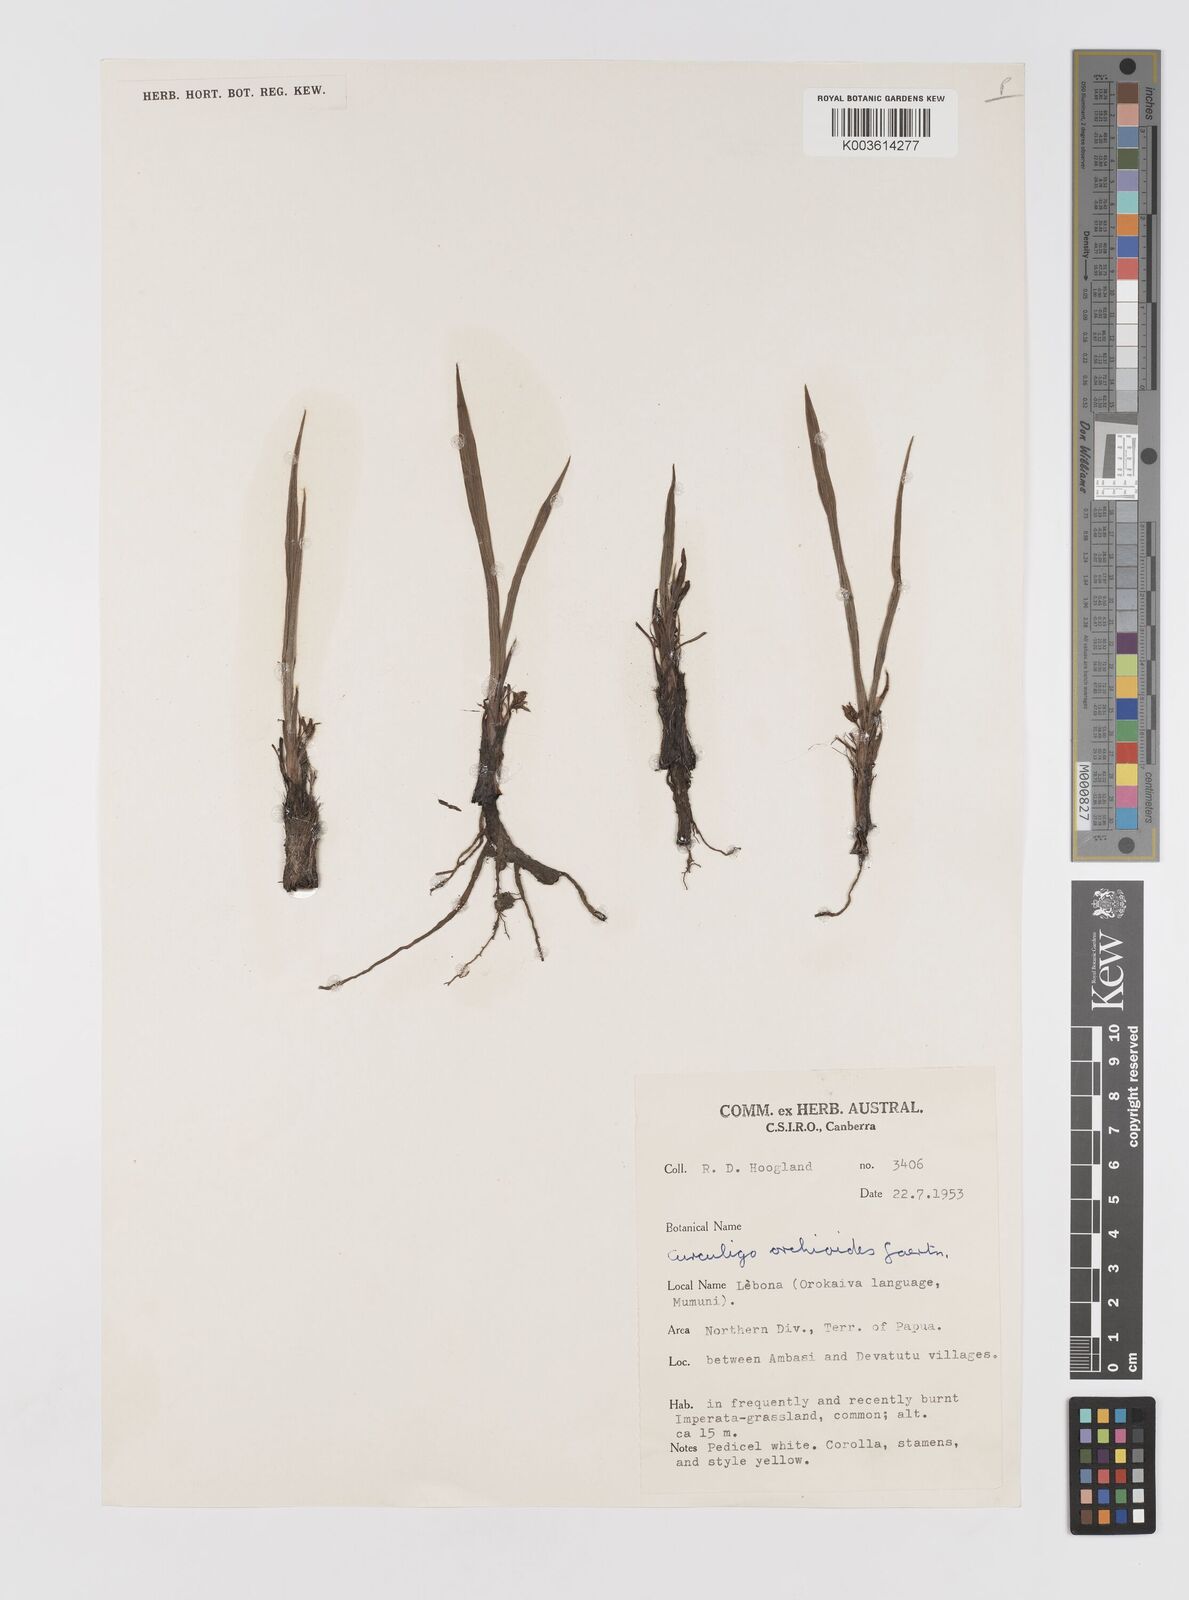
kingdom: Plantae
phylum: Tracheophyta
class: Liliopsida
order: Asparagales
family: Hypoxidaceae
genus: Curculigo
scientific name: Curculigo orchioides
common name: Golden eye-grass
